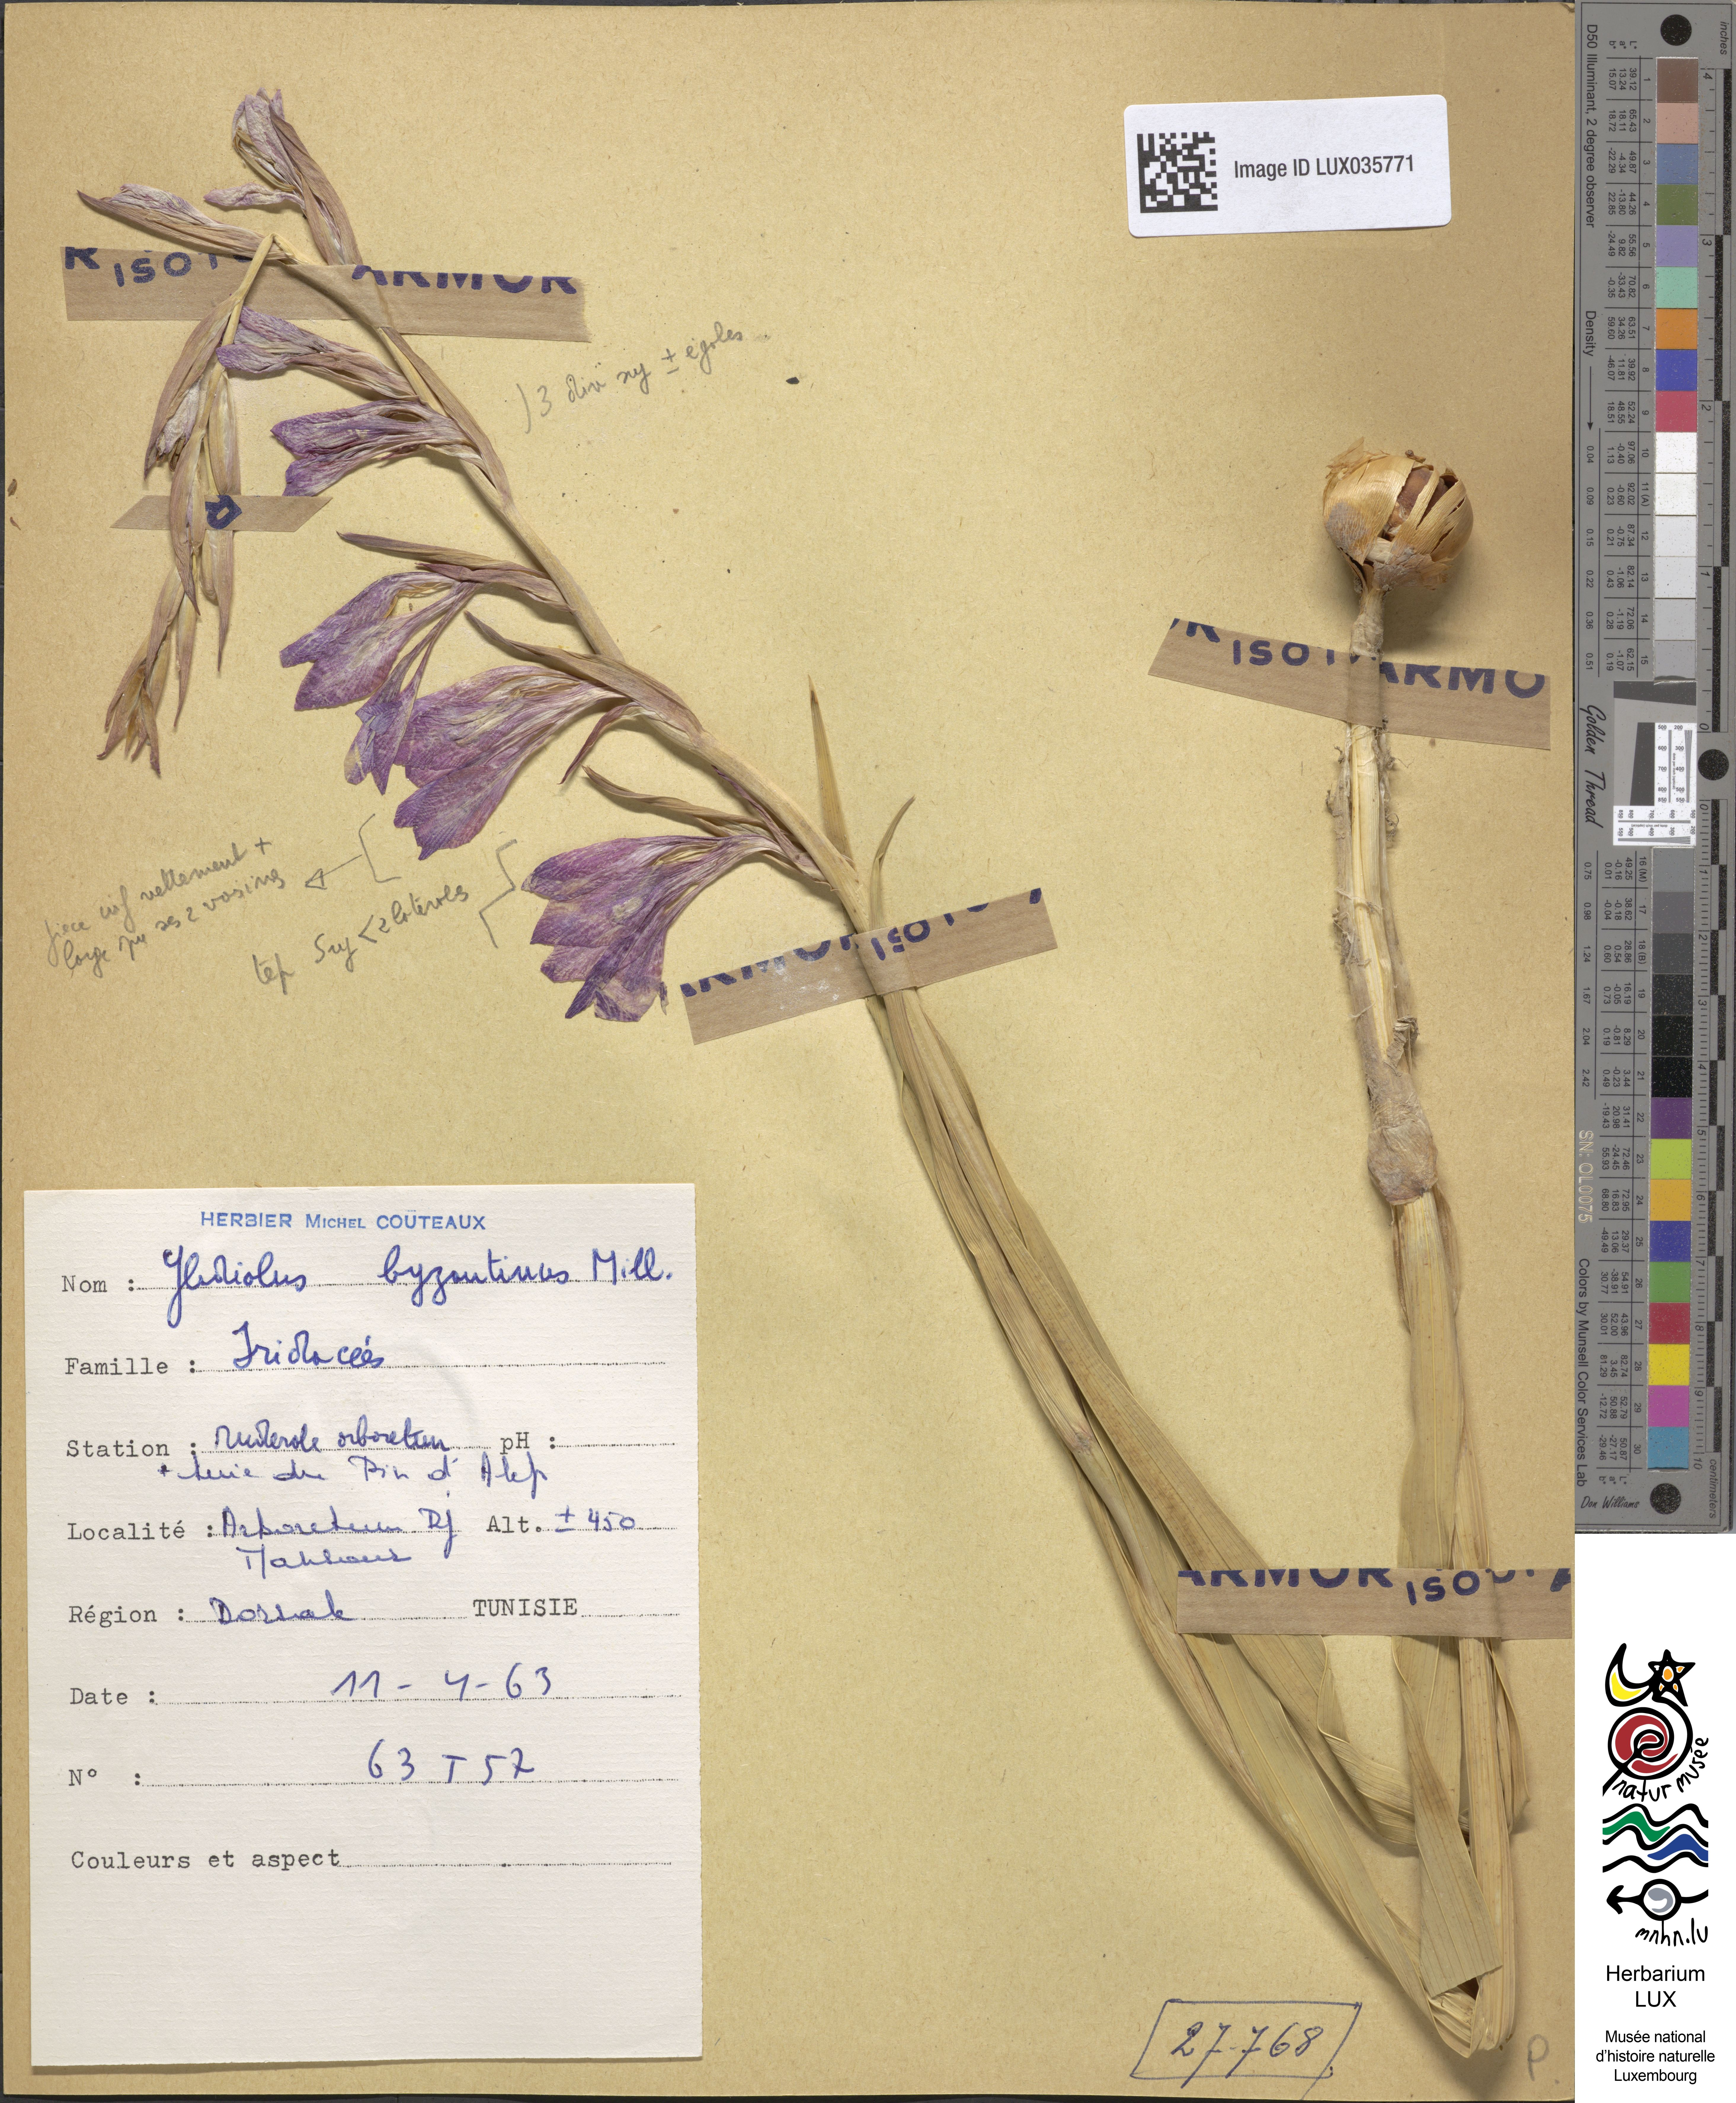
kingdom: Plantae
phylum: Tracheophyta
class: Liliopsida
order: Asparagales
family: Iridaceae
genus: Gladiolus
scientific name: Gladiolus byzantinus
